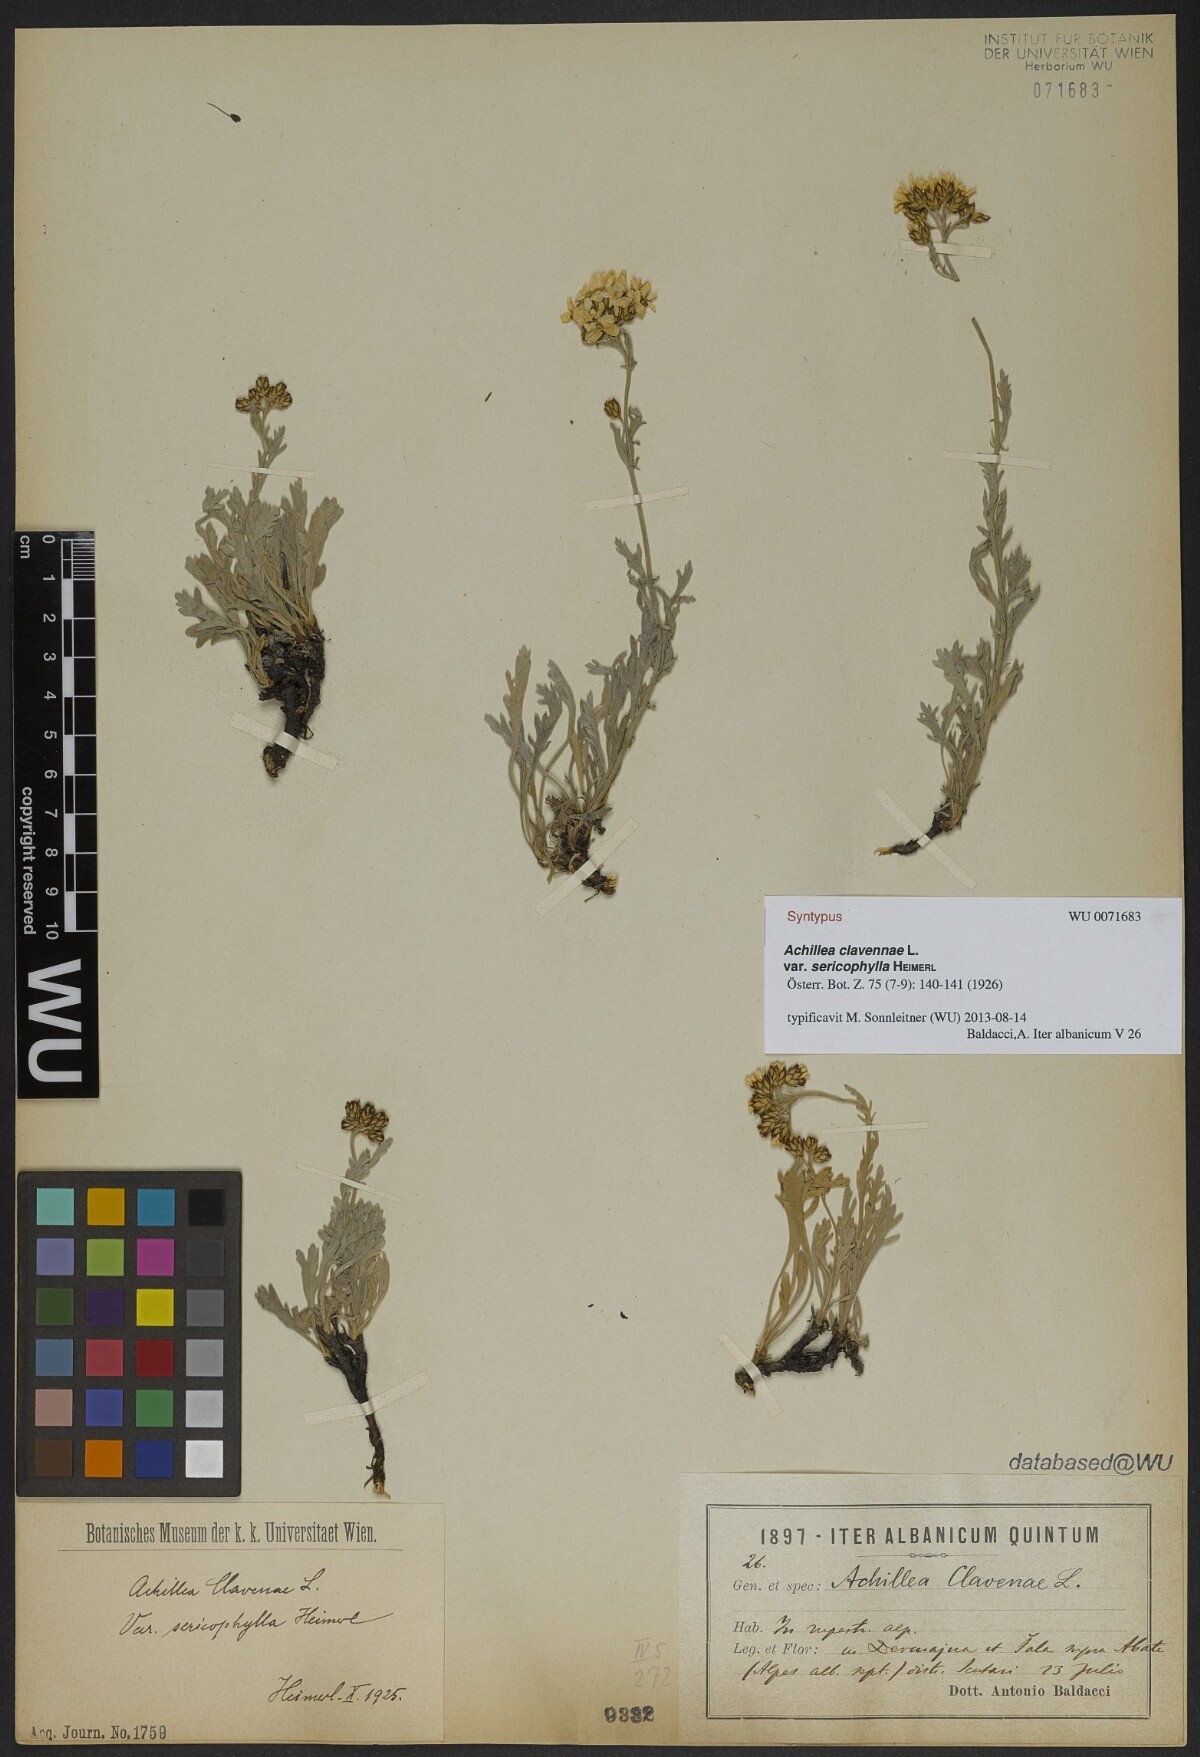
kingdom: Plantae
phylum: Tracheophyta
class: Magnoliopsida
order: Asterales
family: Asteraceae
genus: Achillea
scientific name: Achillea clavennae
